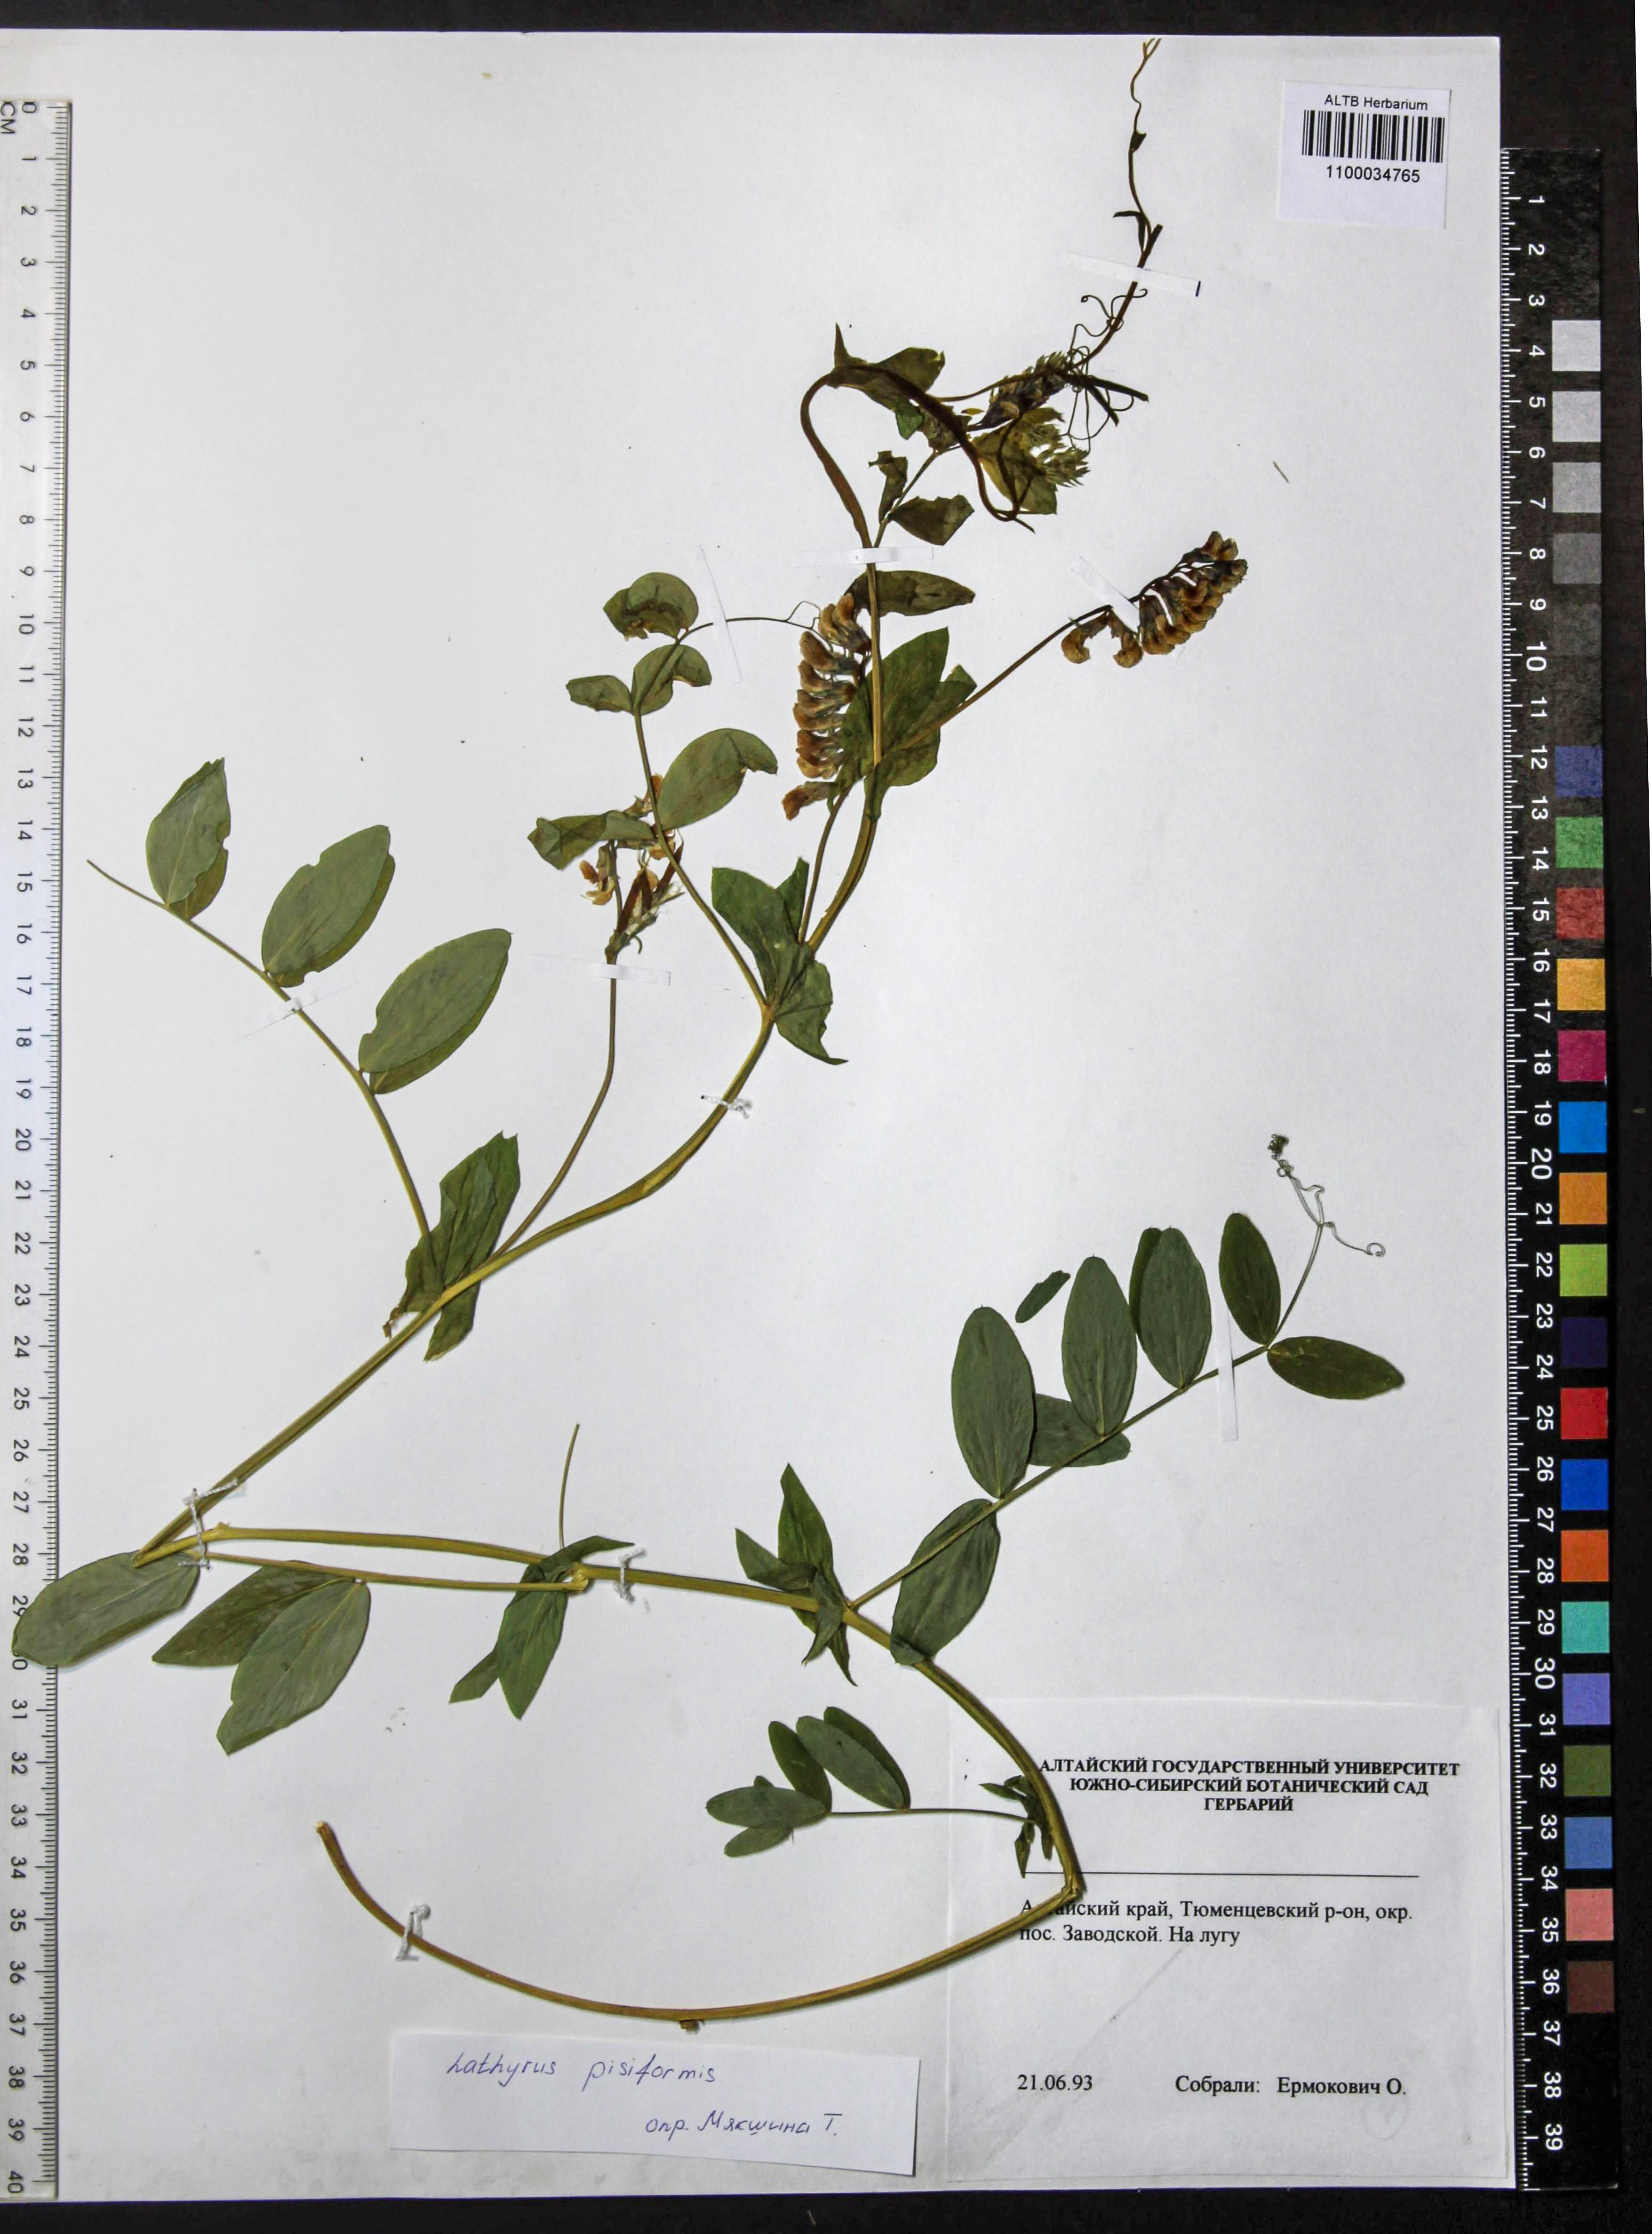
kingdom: Plantae
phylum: Tracheophyta
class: Magnoliopsida
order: Fabales
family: Fabaceae
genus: Lathyrus
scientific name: Lathyrus pisiformis
